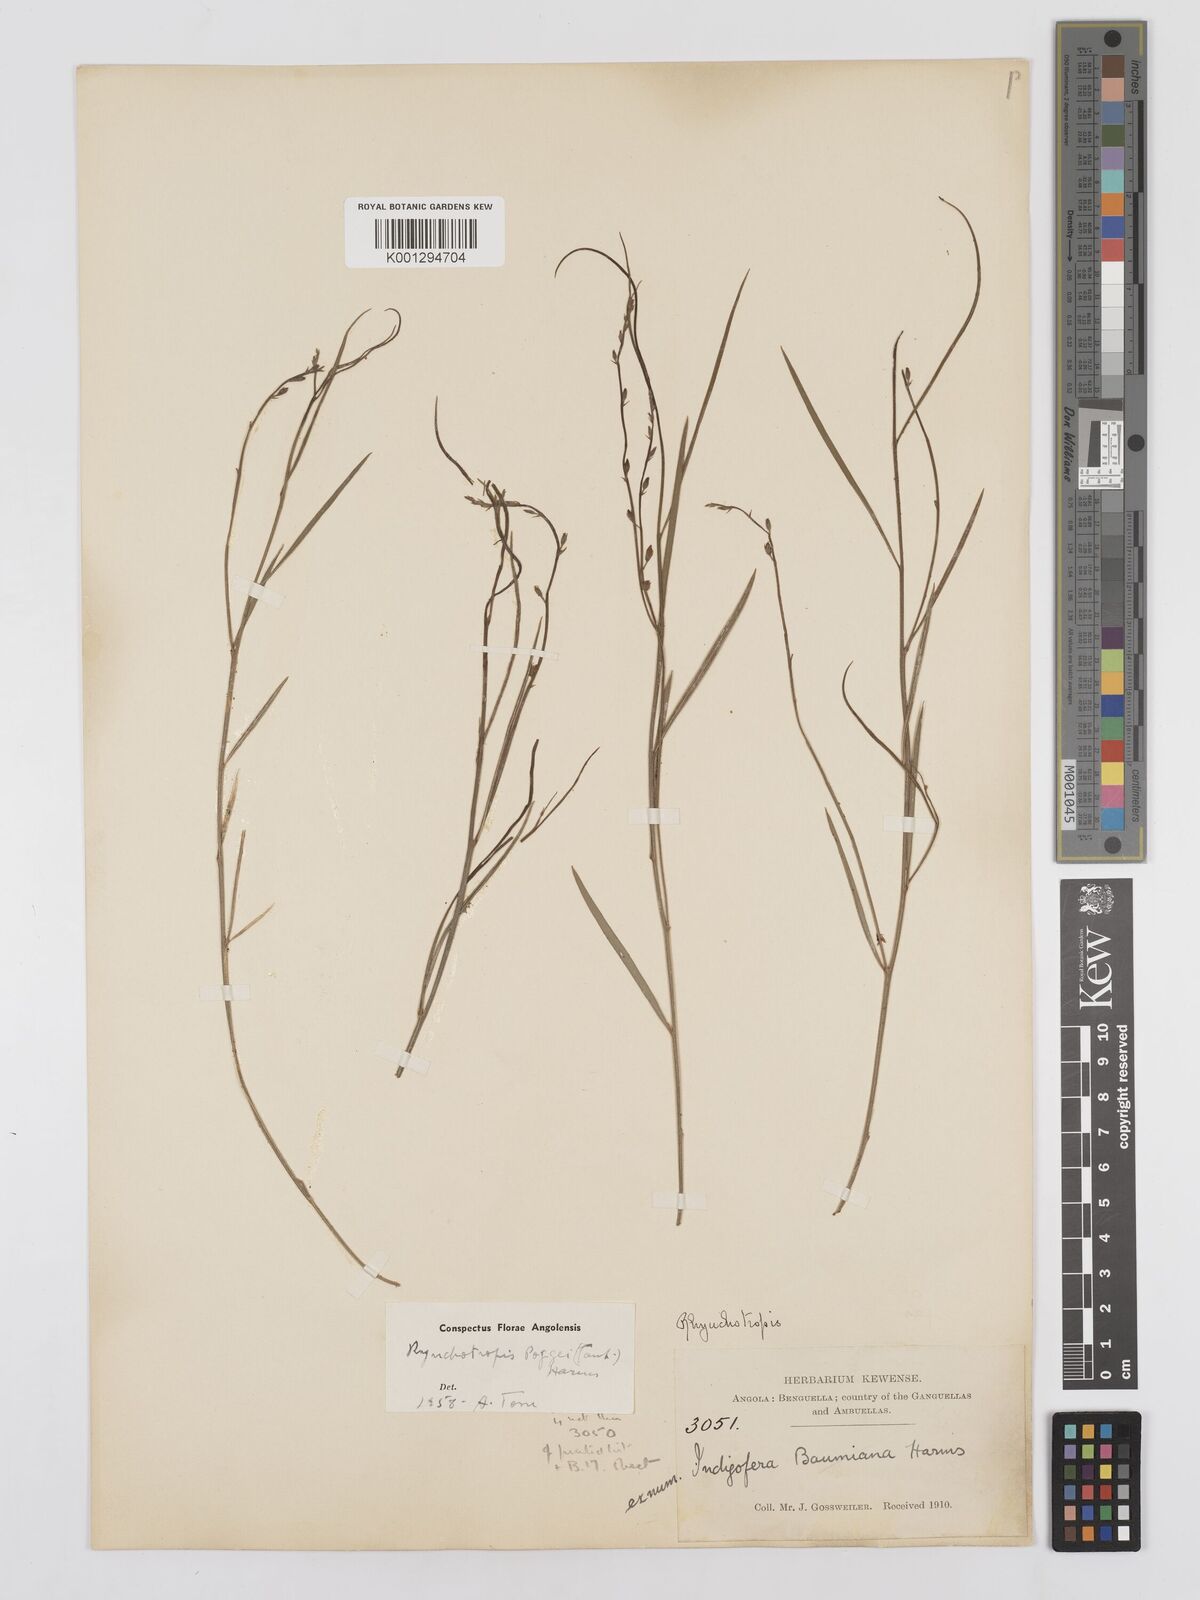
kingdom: Plantae
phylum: Tracheophyta
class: Magnoliopsida
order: Fabales
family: Fabaceae
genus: Rhynchotropis
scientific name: Rhynchotropis poggei
